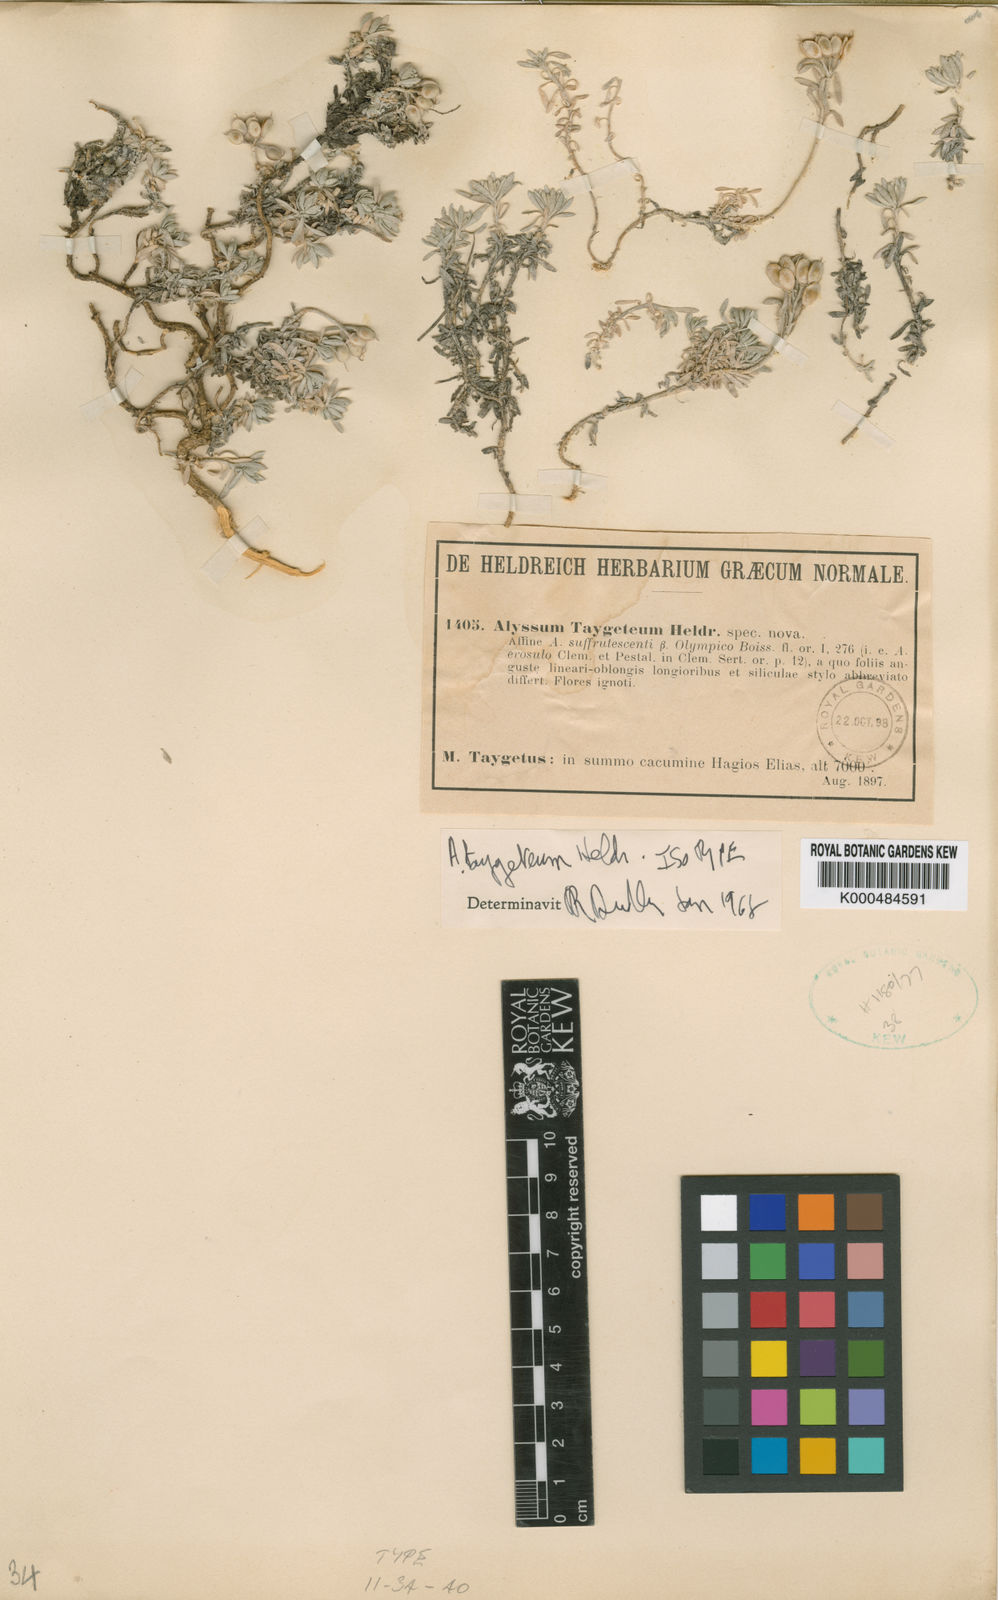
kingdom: Plantae
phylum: Tracheophyta
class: Magnoliopsida
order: Brassicales
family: Brassicaceae
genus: Alyssum
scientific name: Alyssum taygeteum
